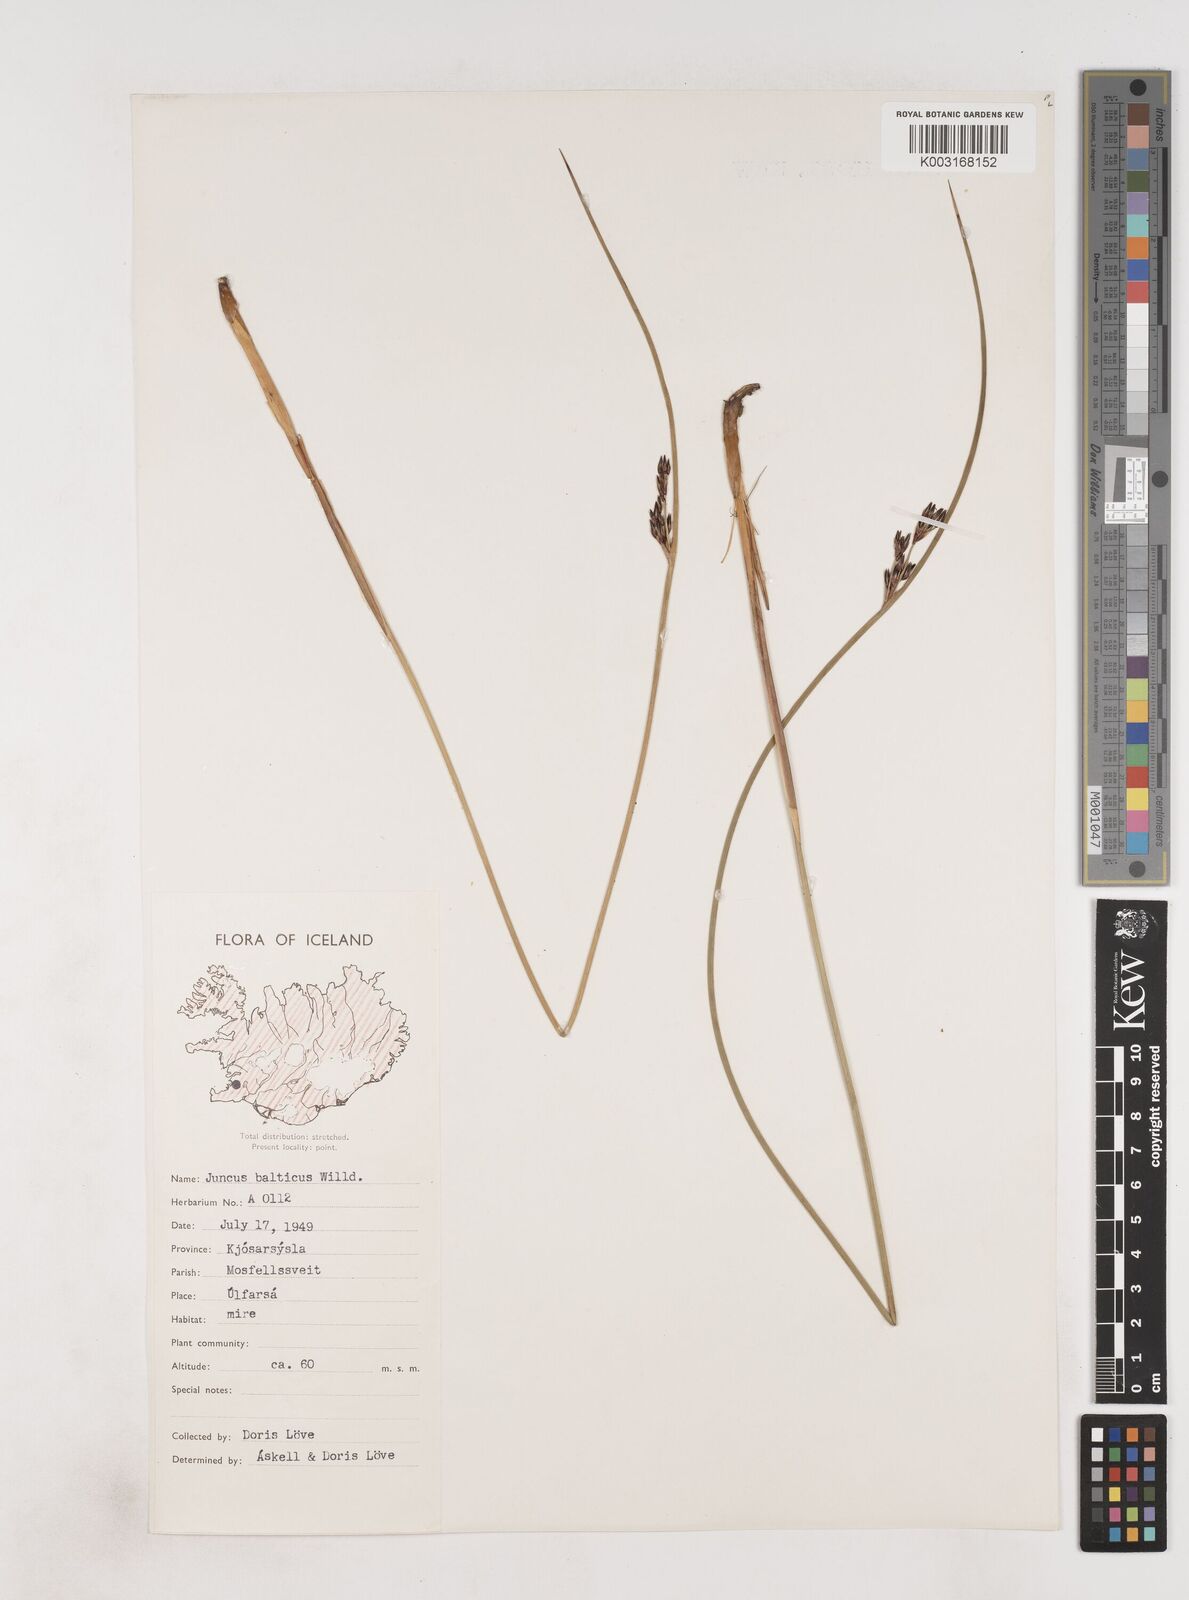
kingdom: Plantae
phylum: Tracheophyta
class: Liliopsida
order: Poales
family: Juncaceae
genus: Juncus
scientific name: Juncus balticus
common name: Baltic rush
